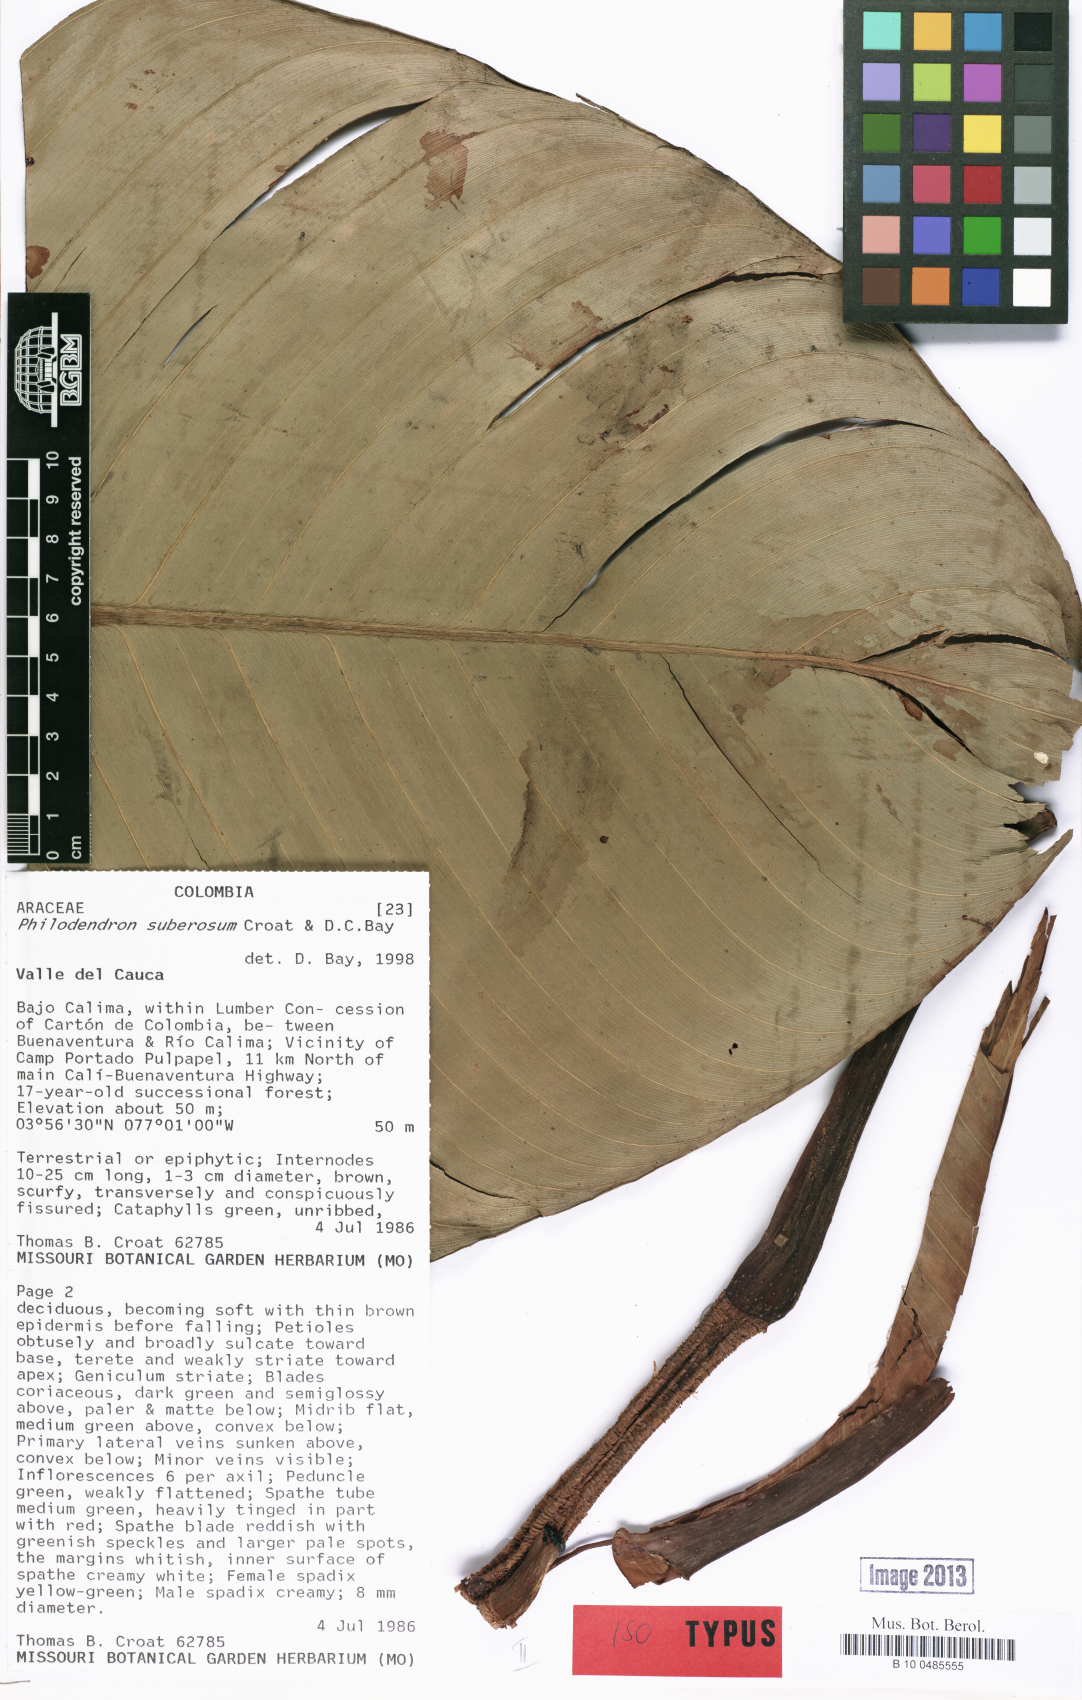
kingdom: Plantae
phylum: Tracheophyta
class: Liliopsida
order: Alismatales
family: Araceae
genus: Philodendron
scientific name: Philodendron suberosum
